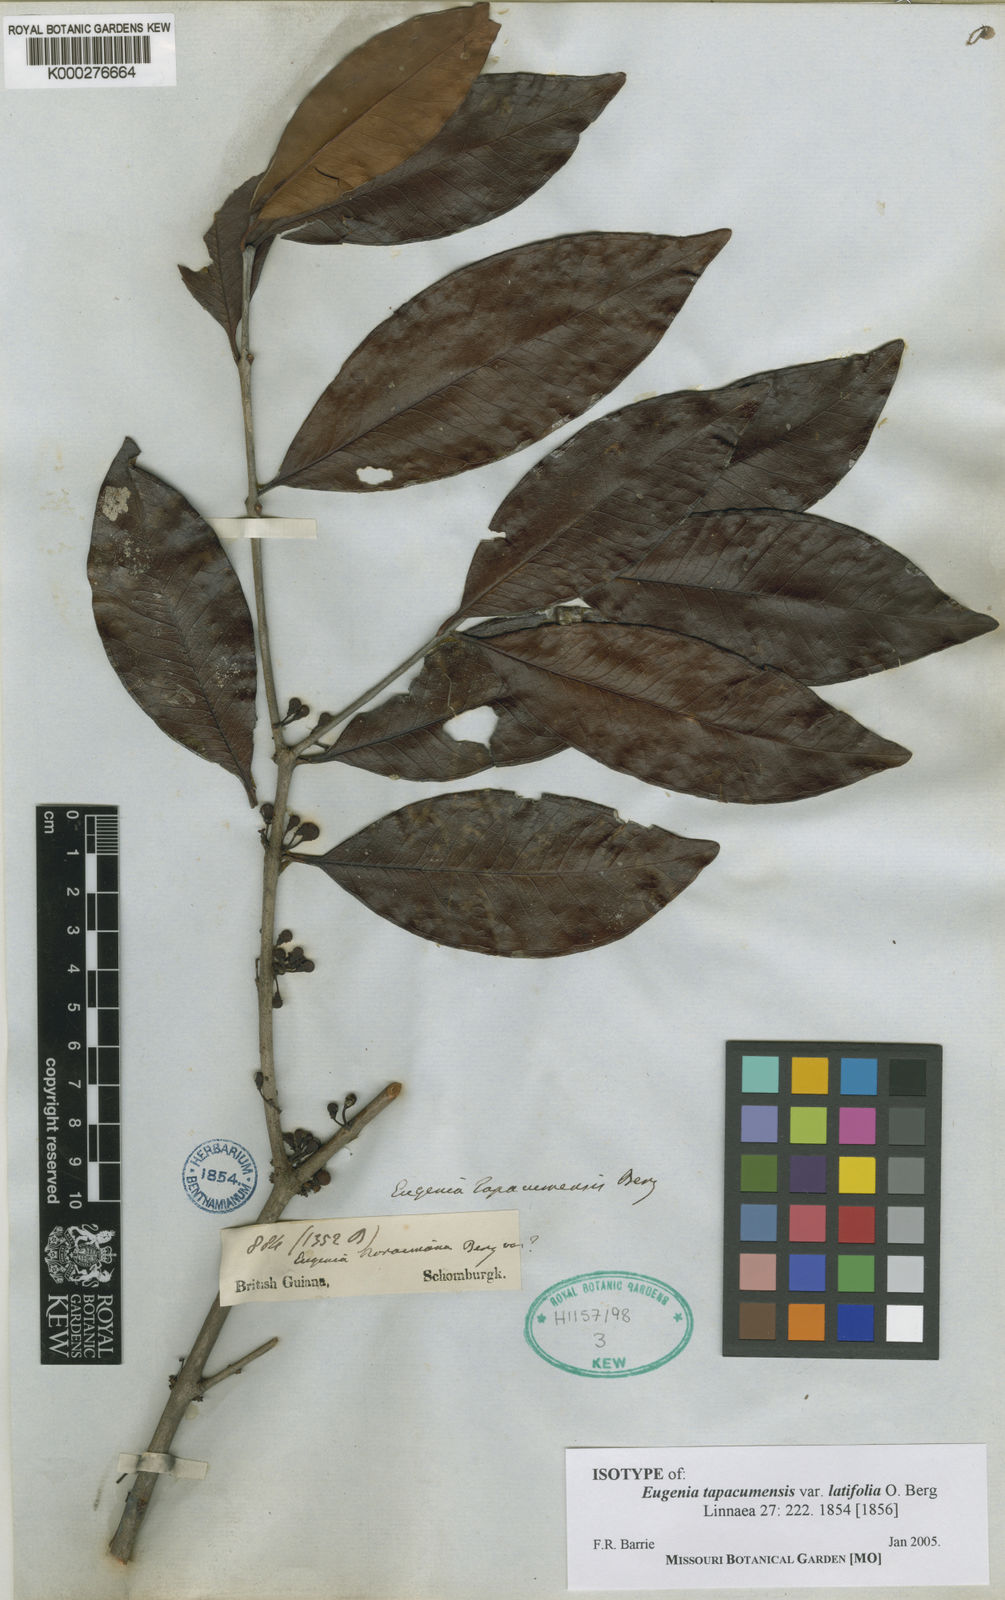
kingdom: Plantae
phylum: Tracheophyta
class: Magnoliopsida
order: Myrtales
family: Myrtaceae
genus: Eugenia
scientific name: Eugenia tapacumensis
